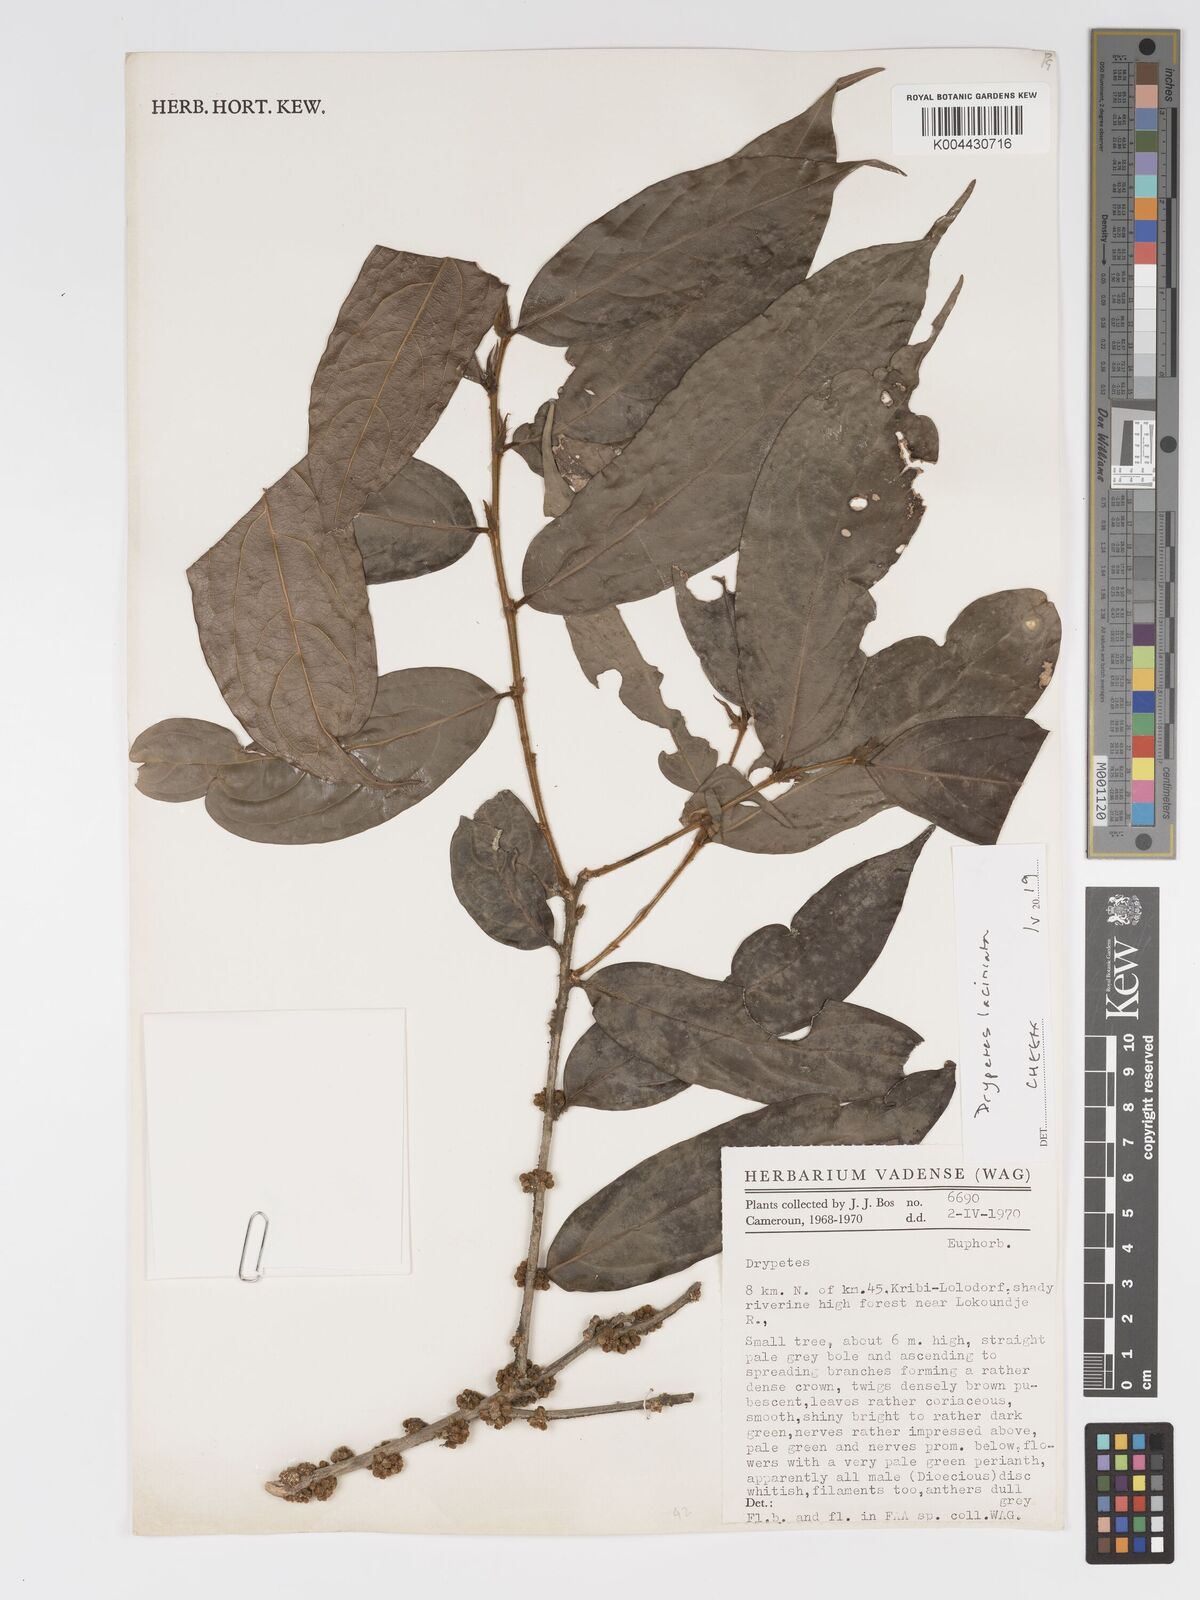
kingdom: Plantae
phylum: Tracheophyta
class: Magnoliopsida
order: Malpighiales
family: Putranjivaceae
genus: Drypetes
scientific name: Drypetes laciniata
